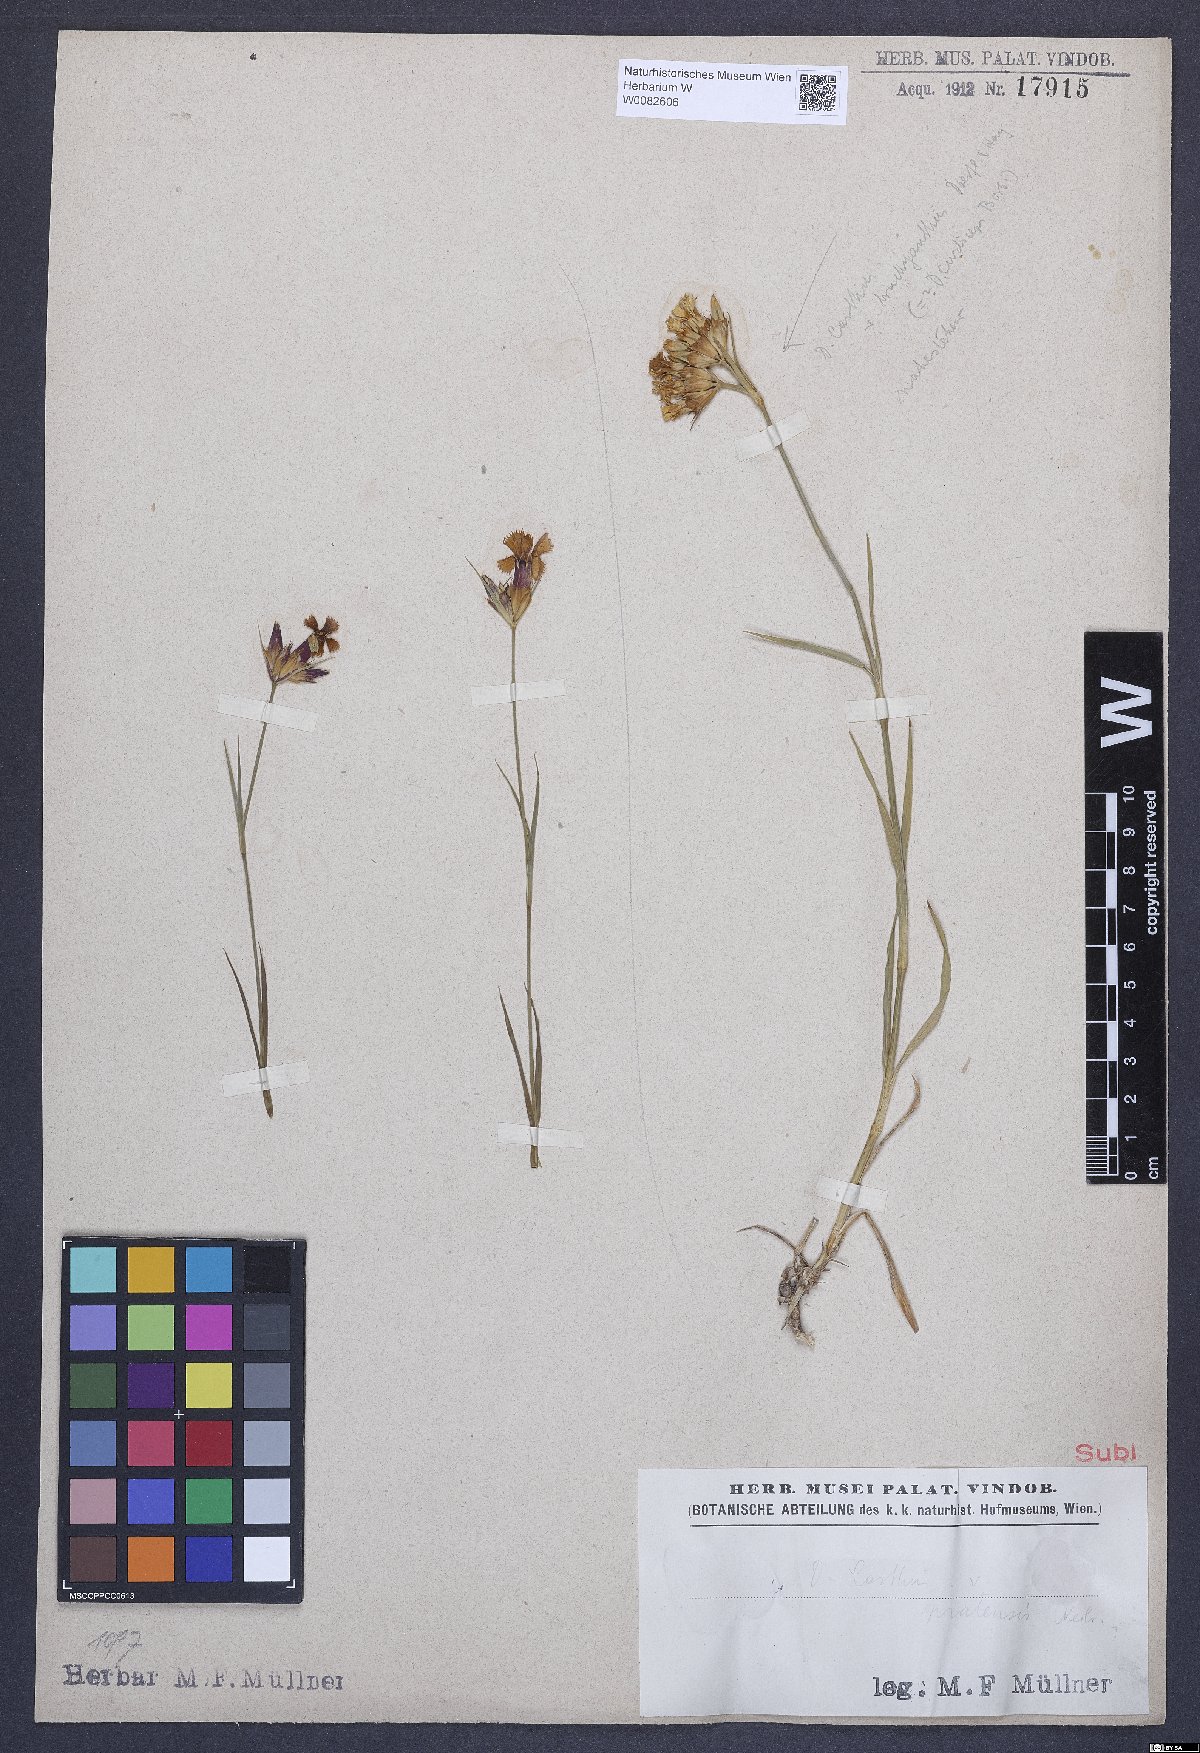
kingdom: Plantae
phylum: Tracheophyta
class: Magnoliopsida
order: Caryophyllales
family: Caryophyllaceae
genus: Dianthus
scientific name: Dianthus carthusianorum
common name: Carthusian pink
